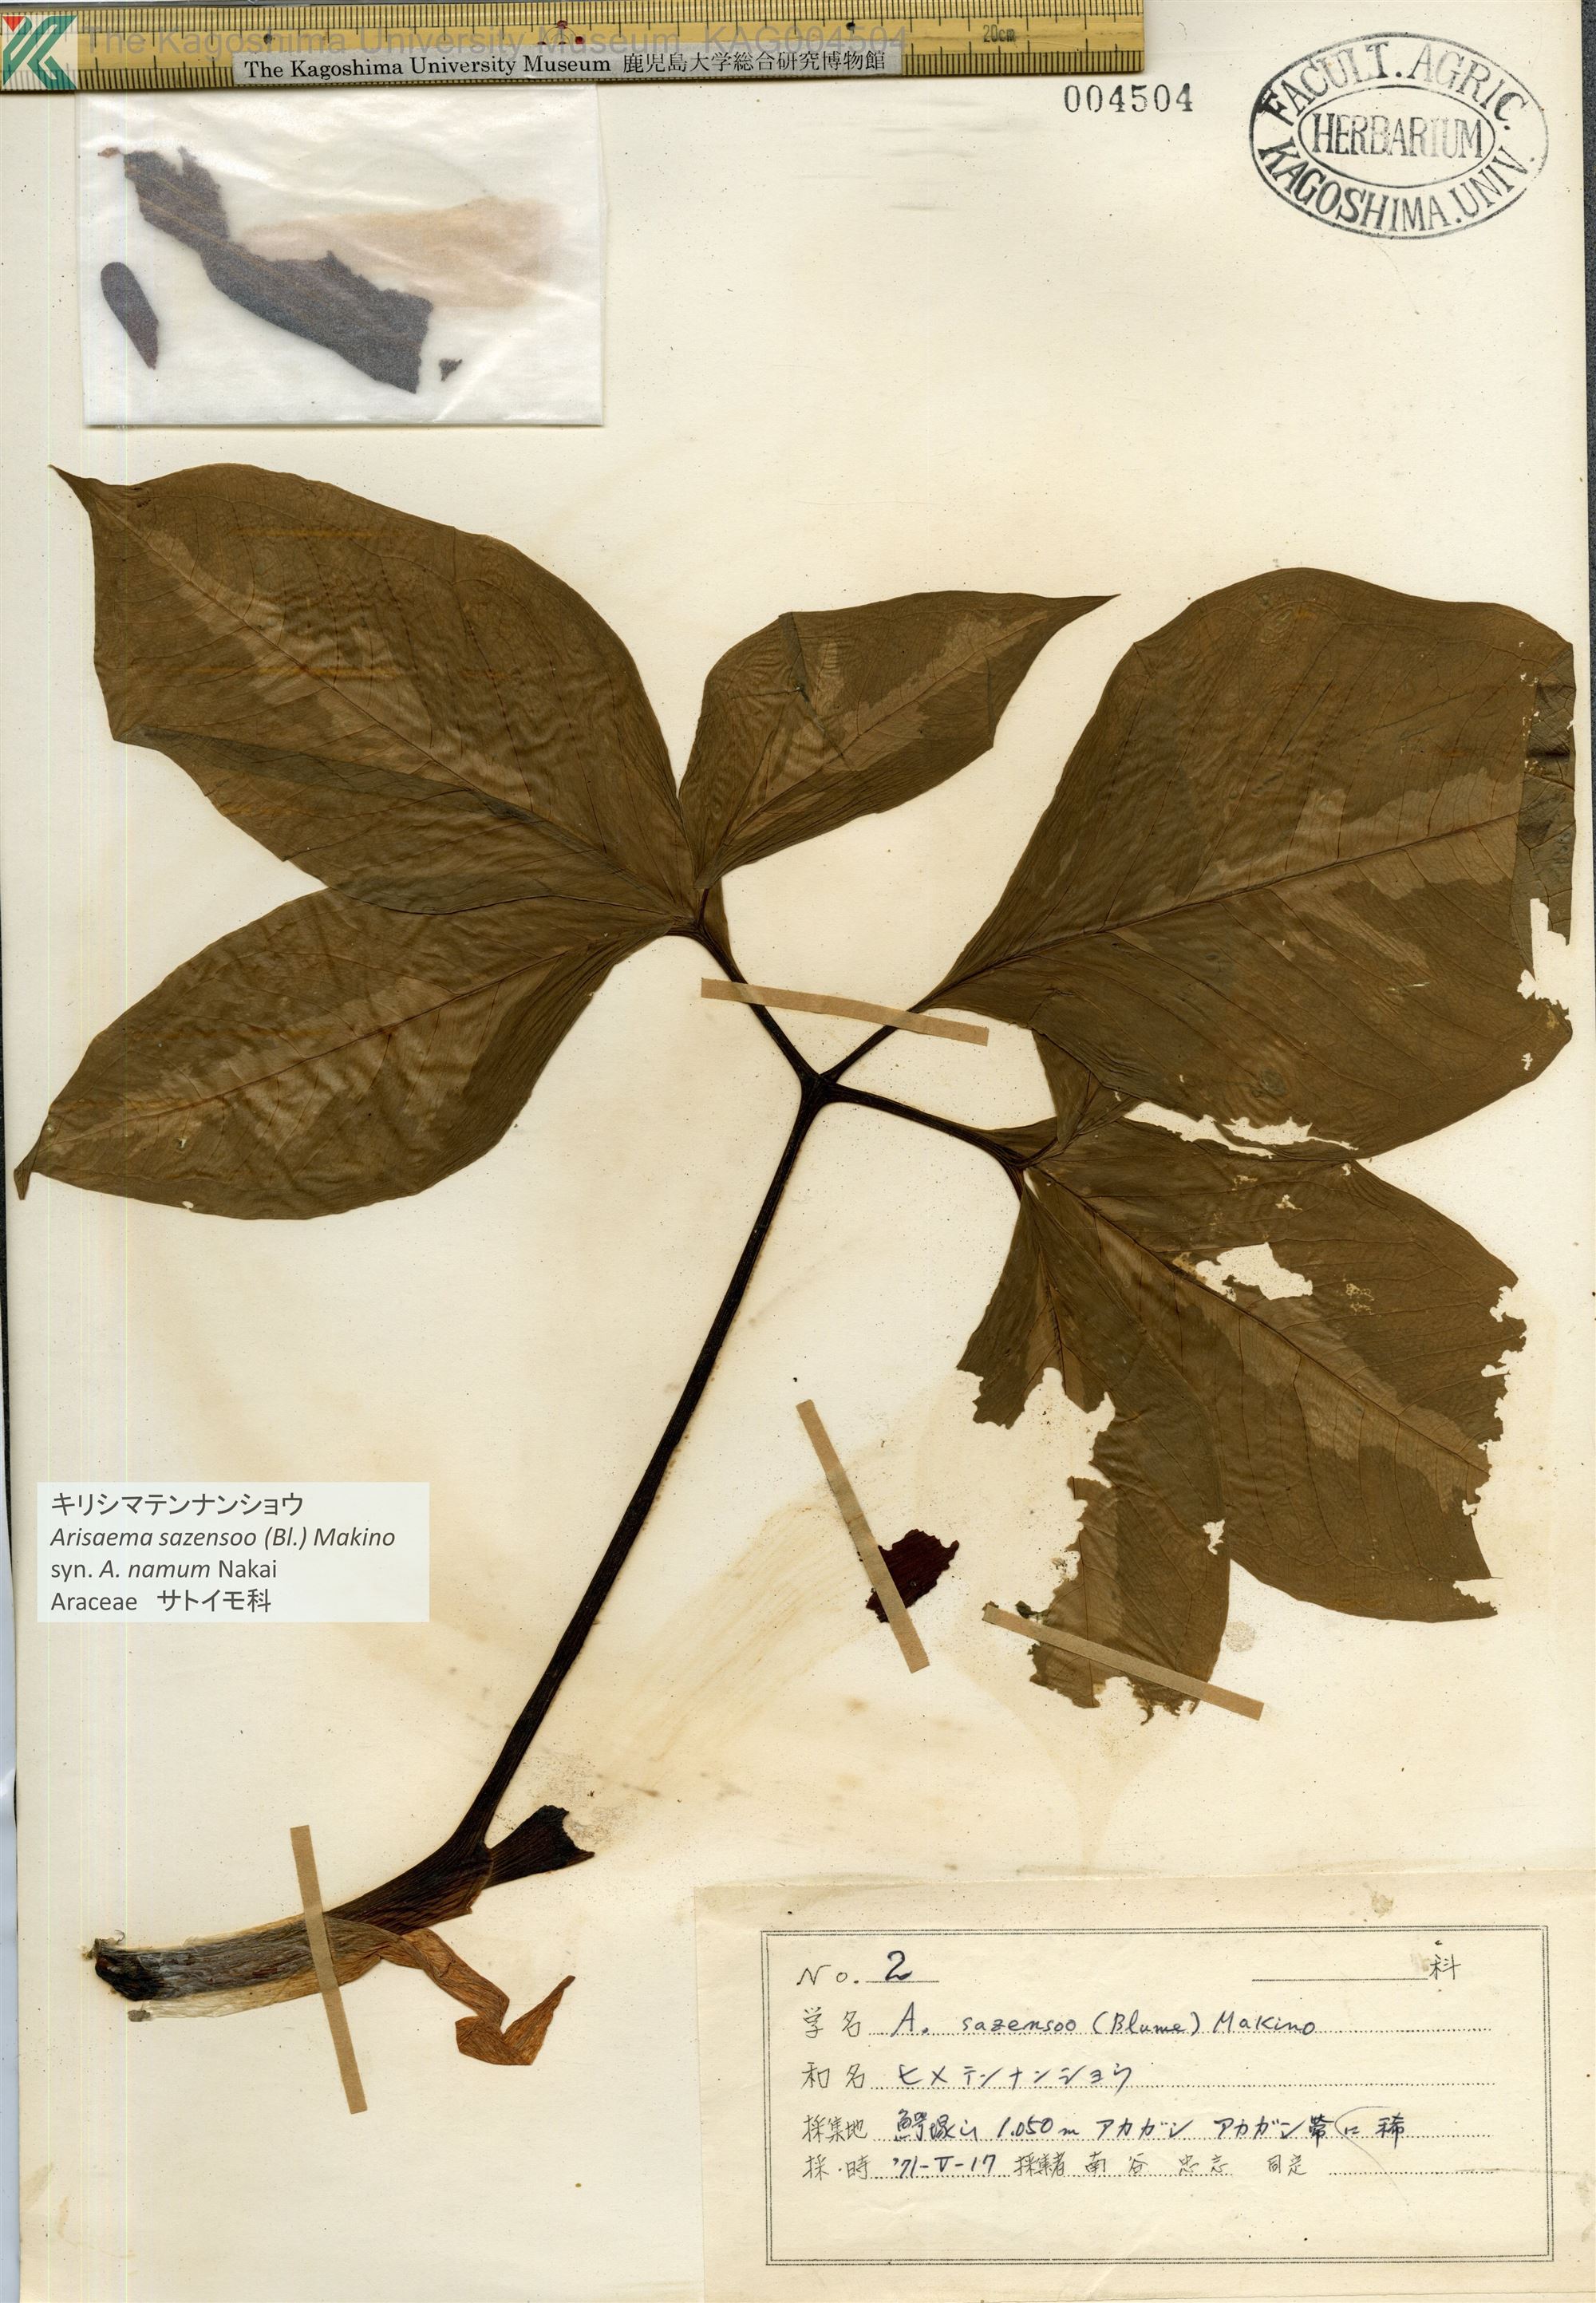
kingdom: Plantae
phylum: Tracheophyta
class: Liliopsida
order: Alismatales
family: Araceae
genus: Arisaema
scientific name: Arisaema sazensoo
